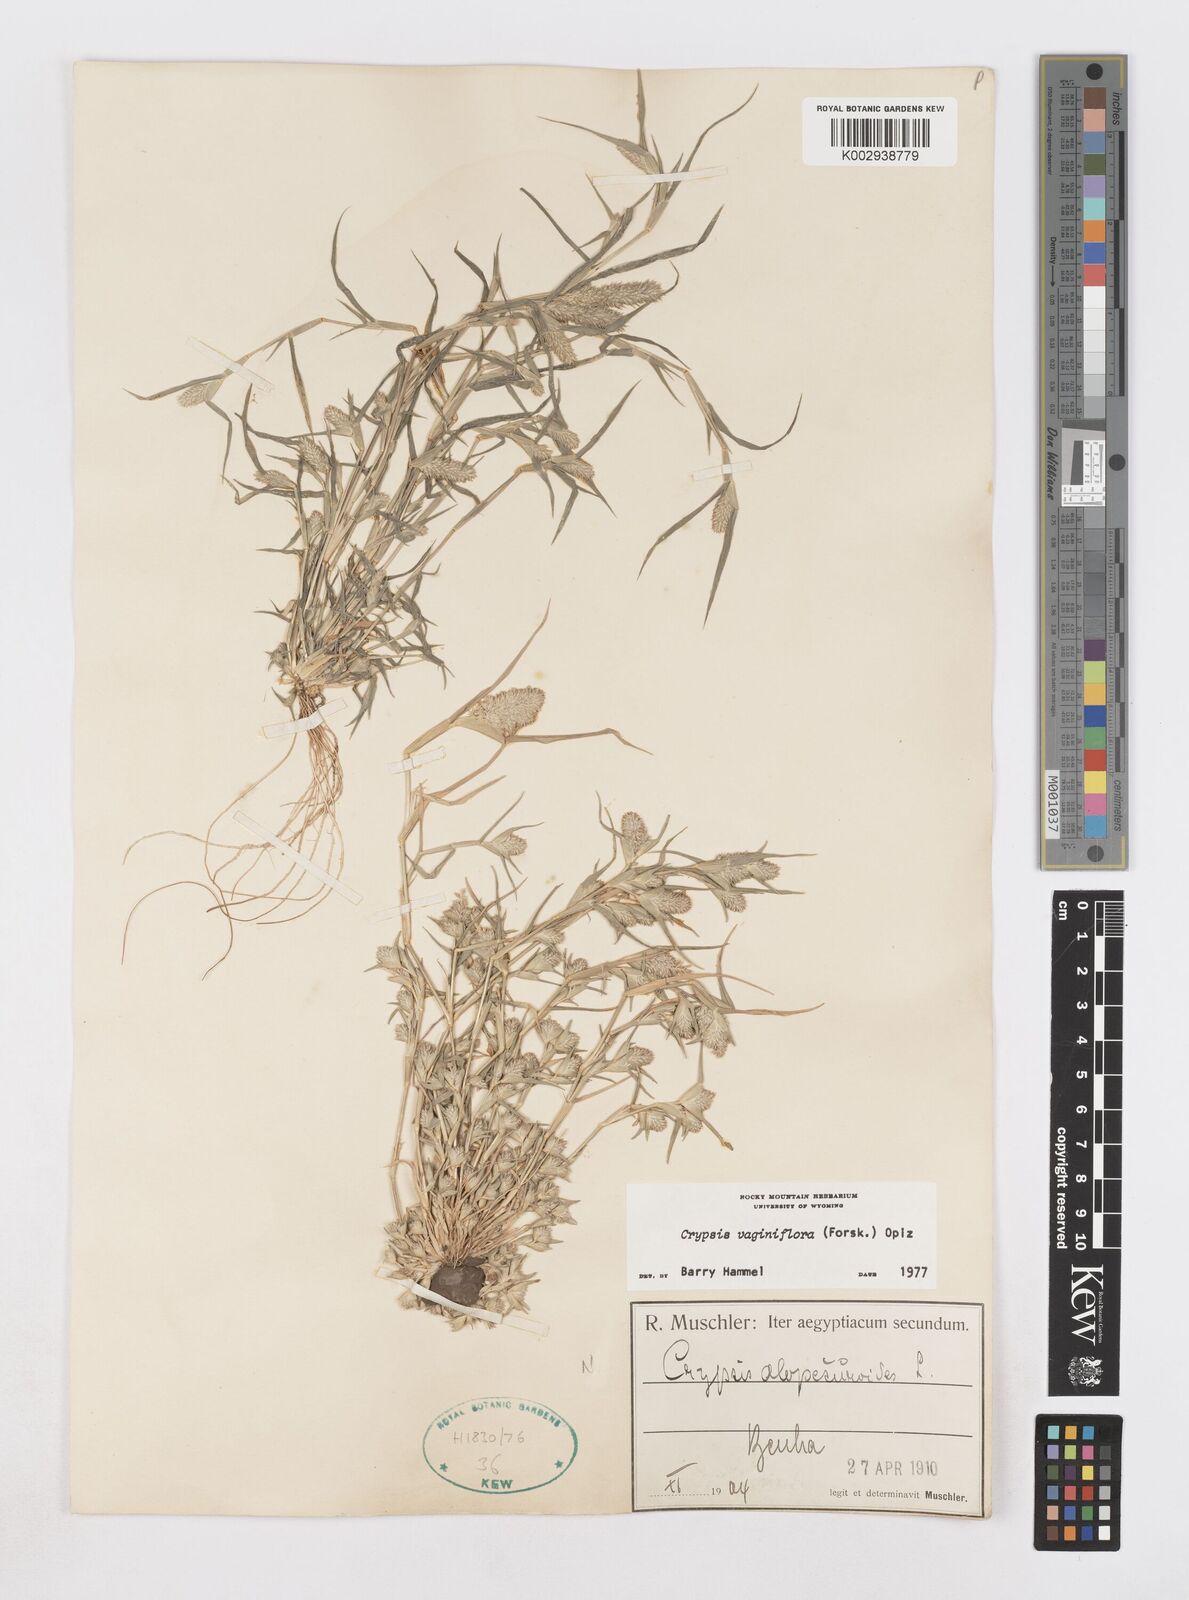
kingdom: Plantae
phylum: Tracheophyta
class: Liliopsida
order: Poales
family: Poaceae
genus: Sporobolus
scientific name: Sporobolus niliacus
